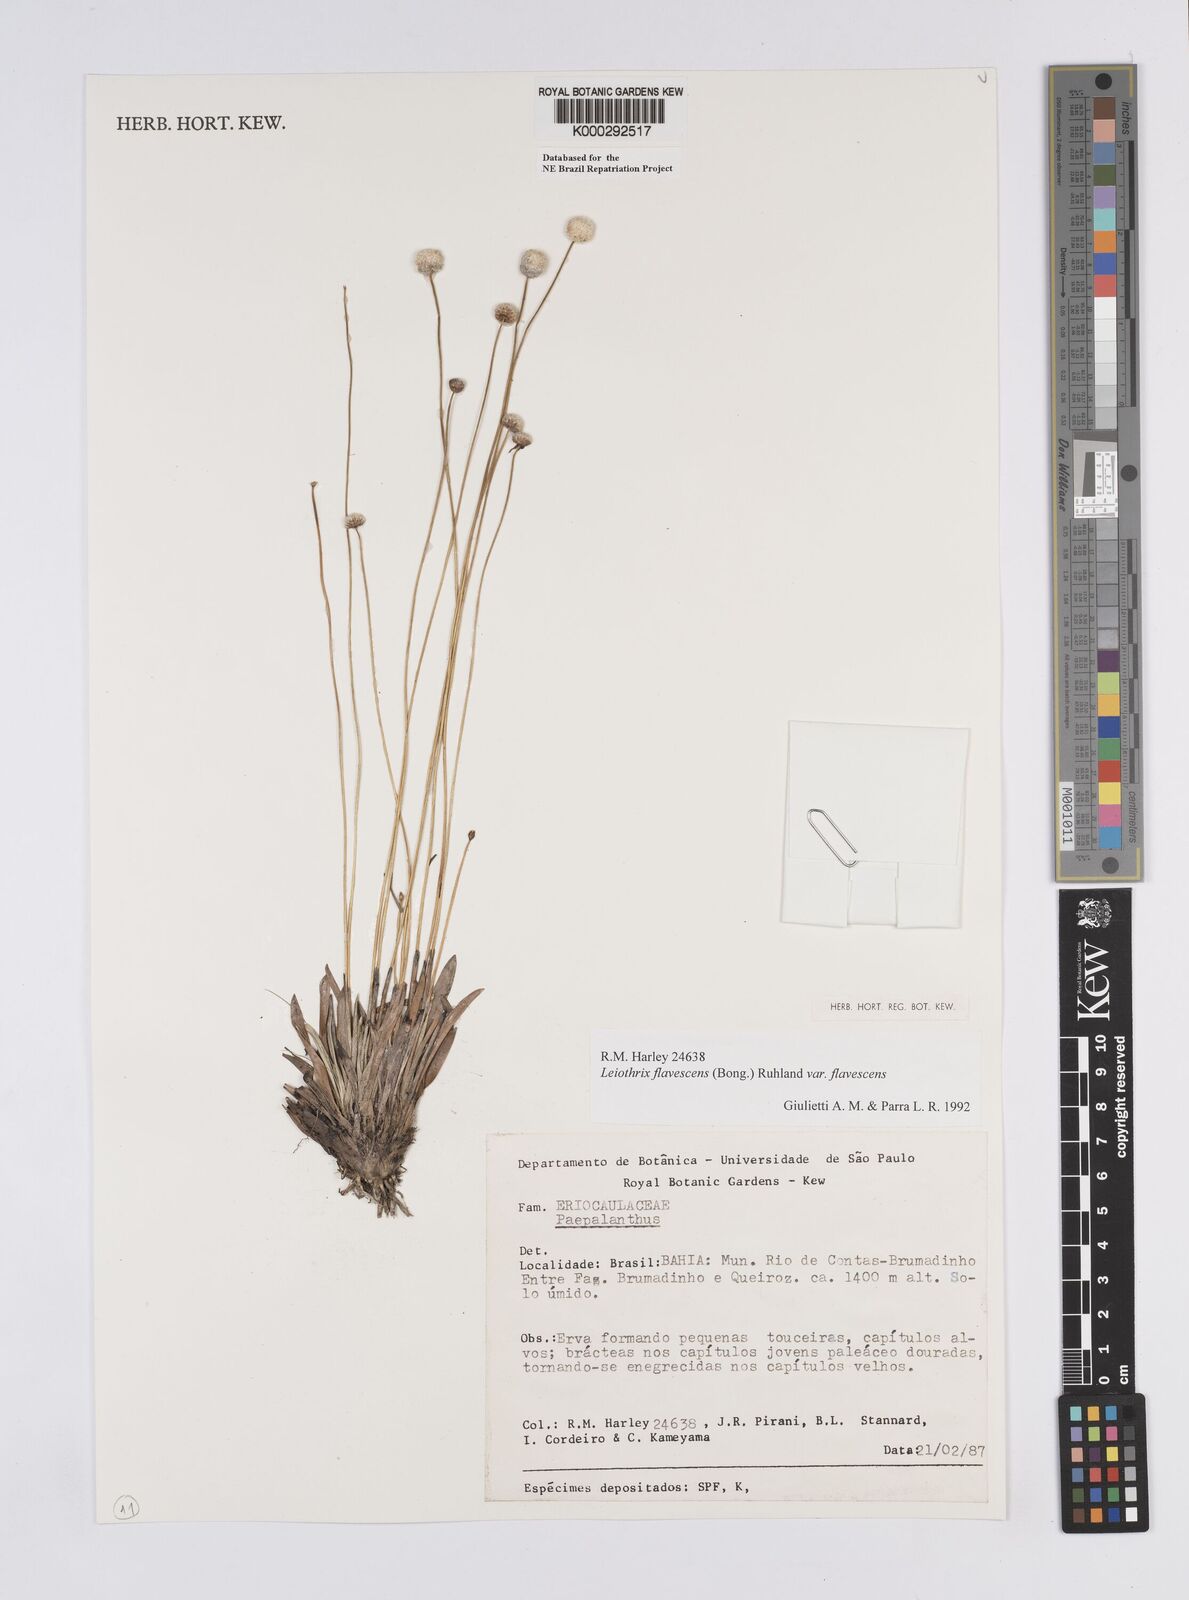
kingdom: Plantae
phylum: Tracheophyta
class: Liliopsida
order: Poales
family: Eriocaulaceae
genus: Leiothrix
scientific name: Leiothrix flavescens
